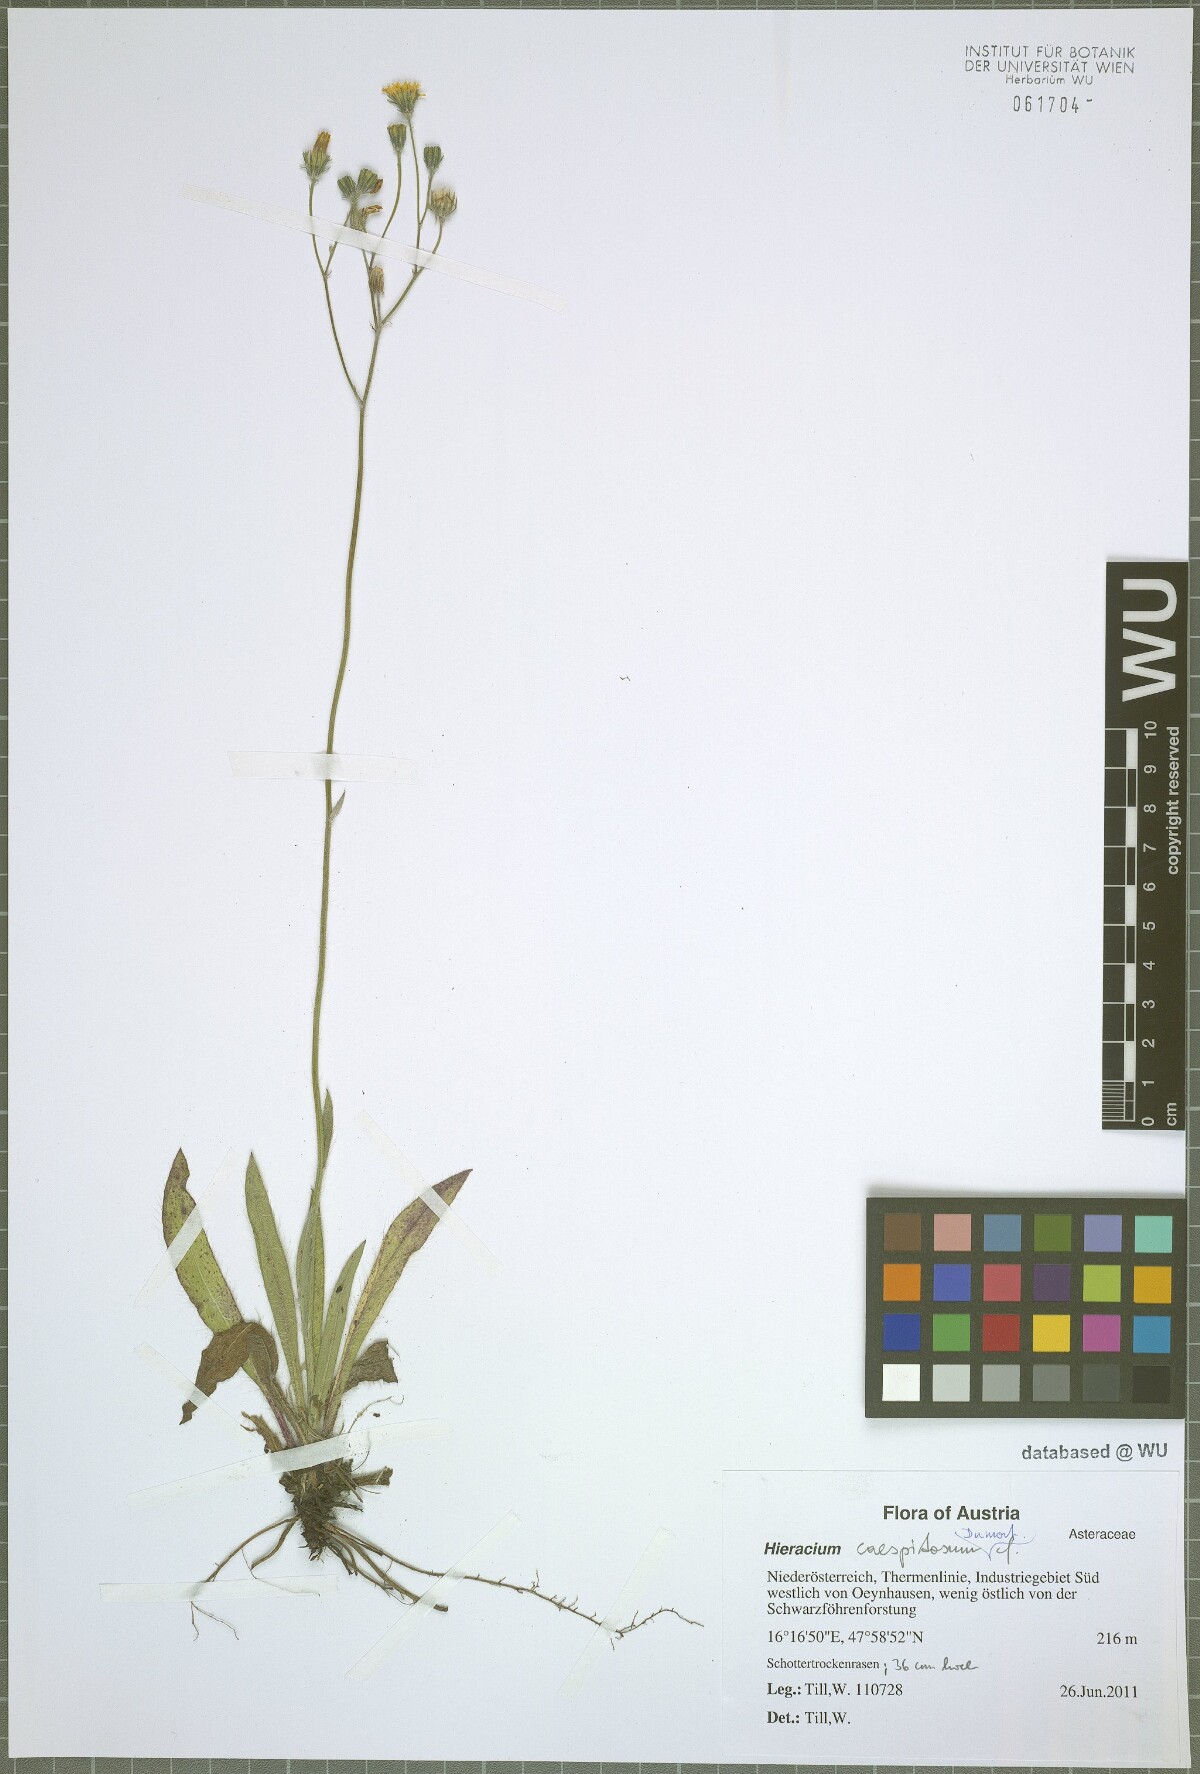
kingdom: Plantae
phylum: Tracheophyta
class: Magnoliopsida
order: Asterales
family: Asteraceae
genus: Pilosella
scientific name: Pilosella densiflora
